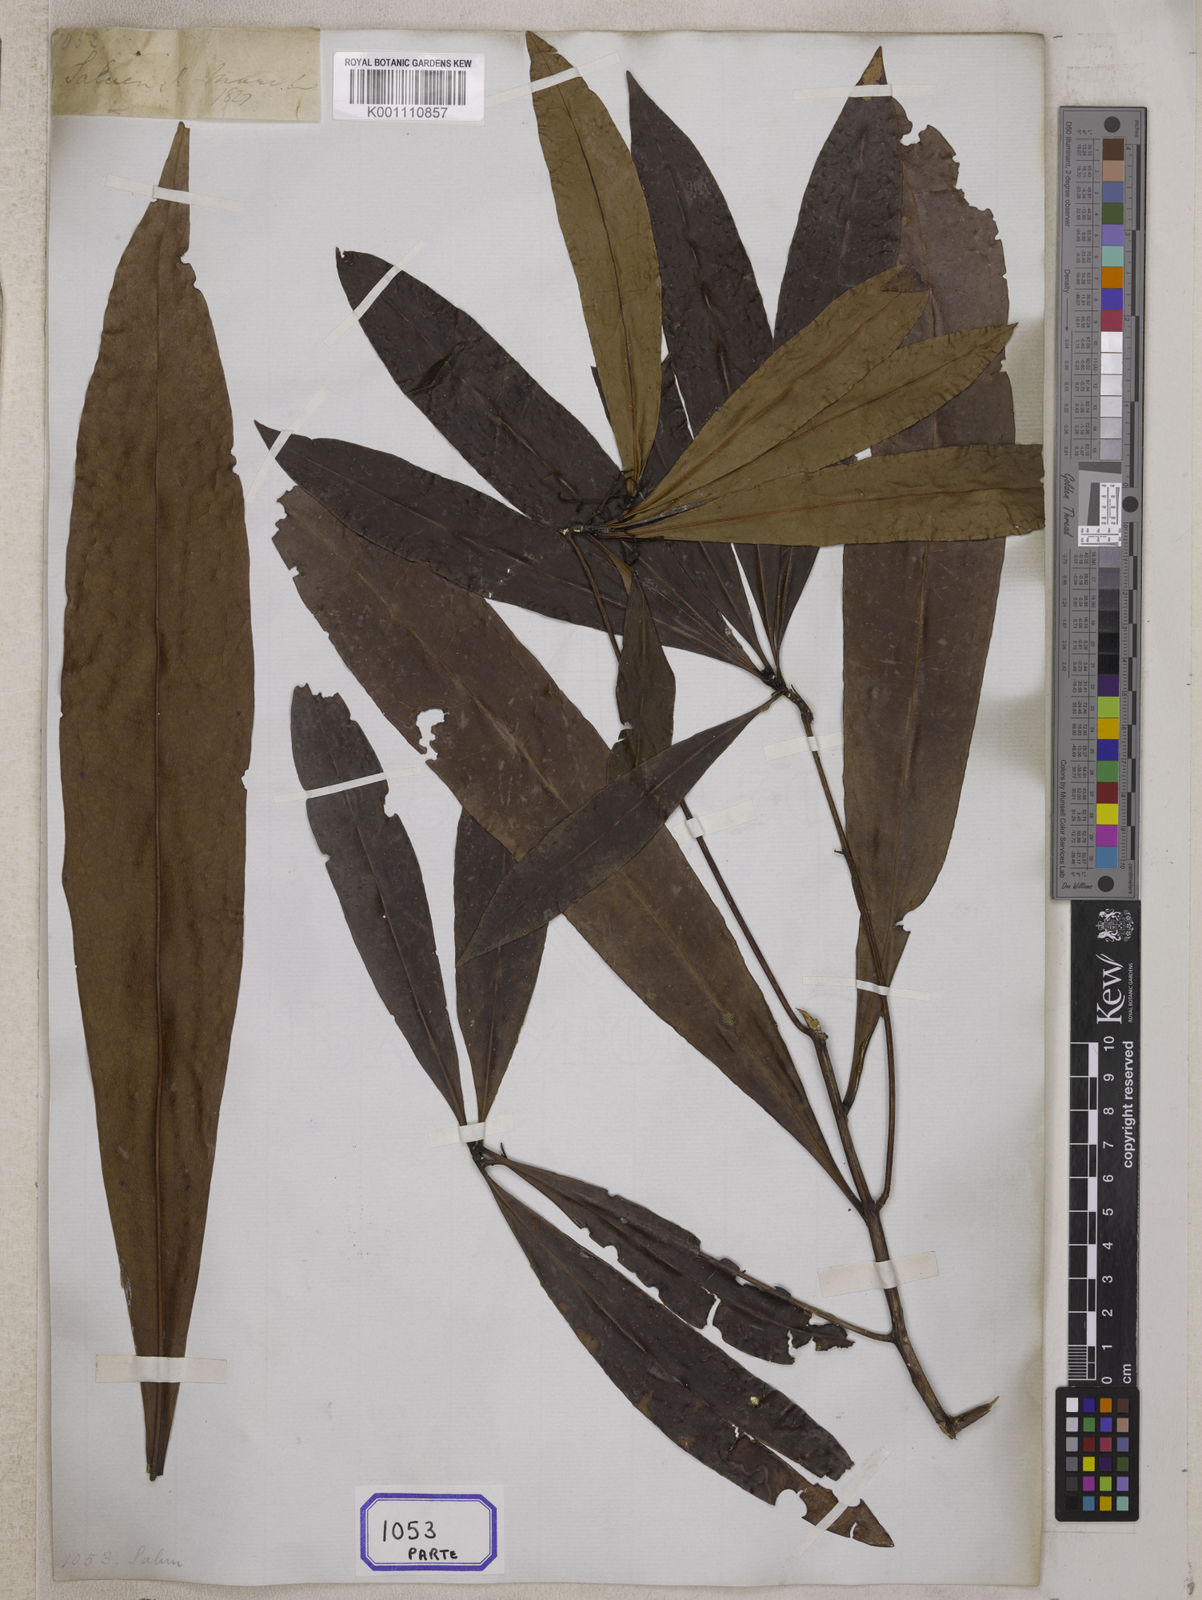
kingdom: Plantae
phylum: Tracheophyta
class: Magnoliopsida
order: Caryophyllales
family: Ancistrocladaceae
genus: Ancistrocladus
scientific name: Ancistrocladus
